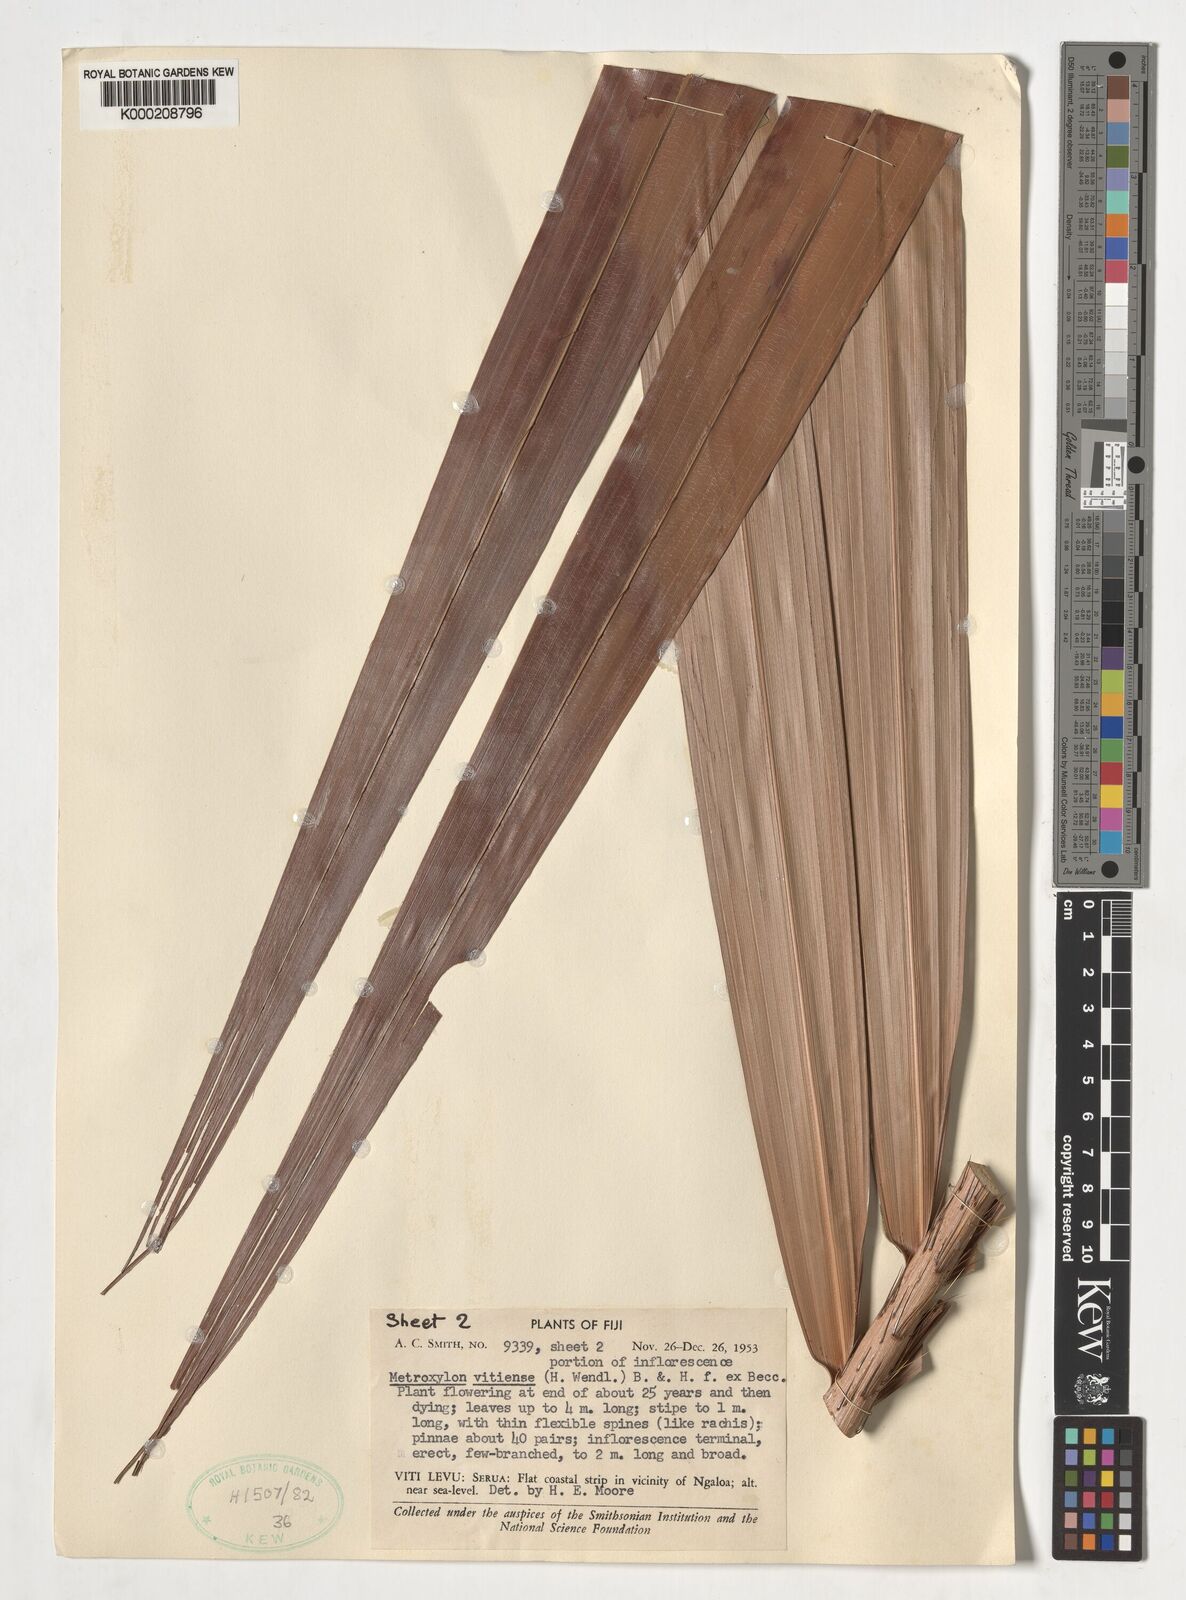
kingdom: Plantae
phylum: Tracheophyta
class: Liliopsida
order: Arecales
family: Arecaceae
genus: Metroxylon
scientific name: Metroxylon
